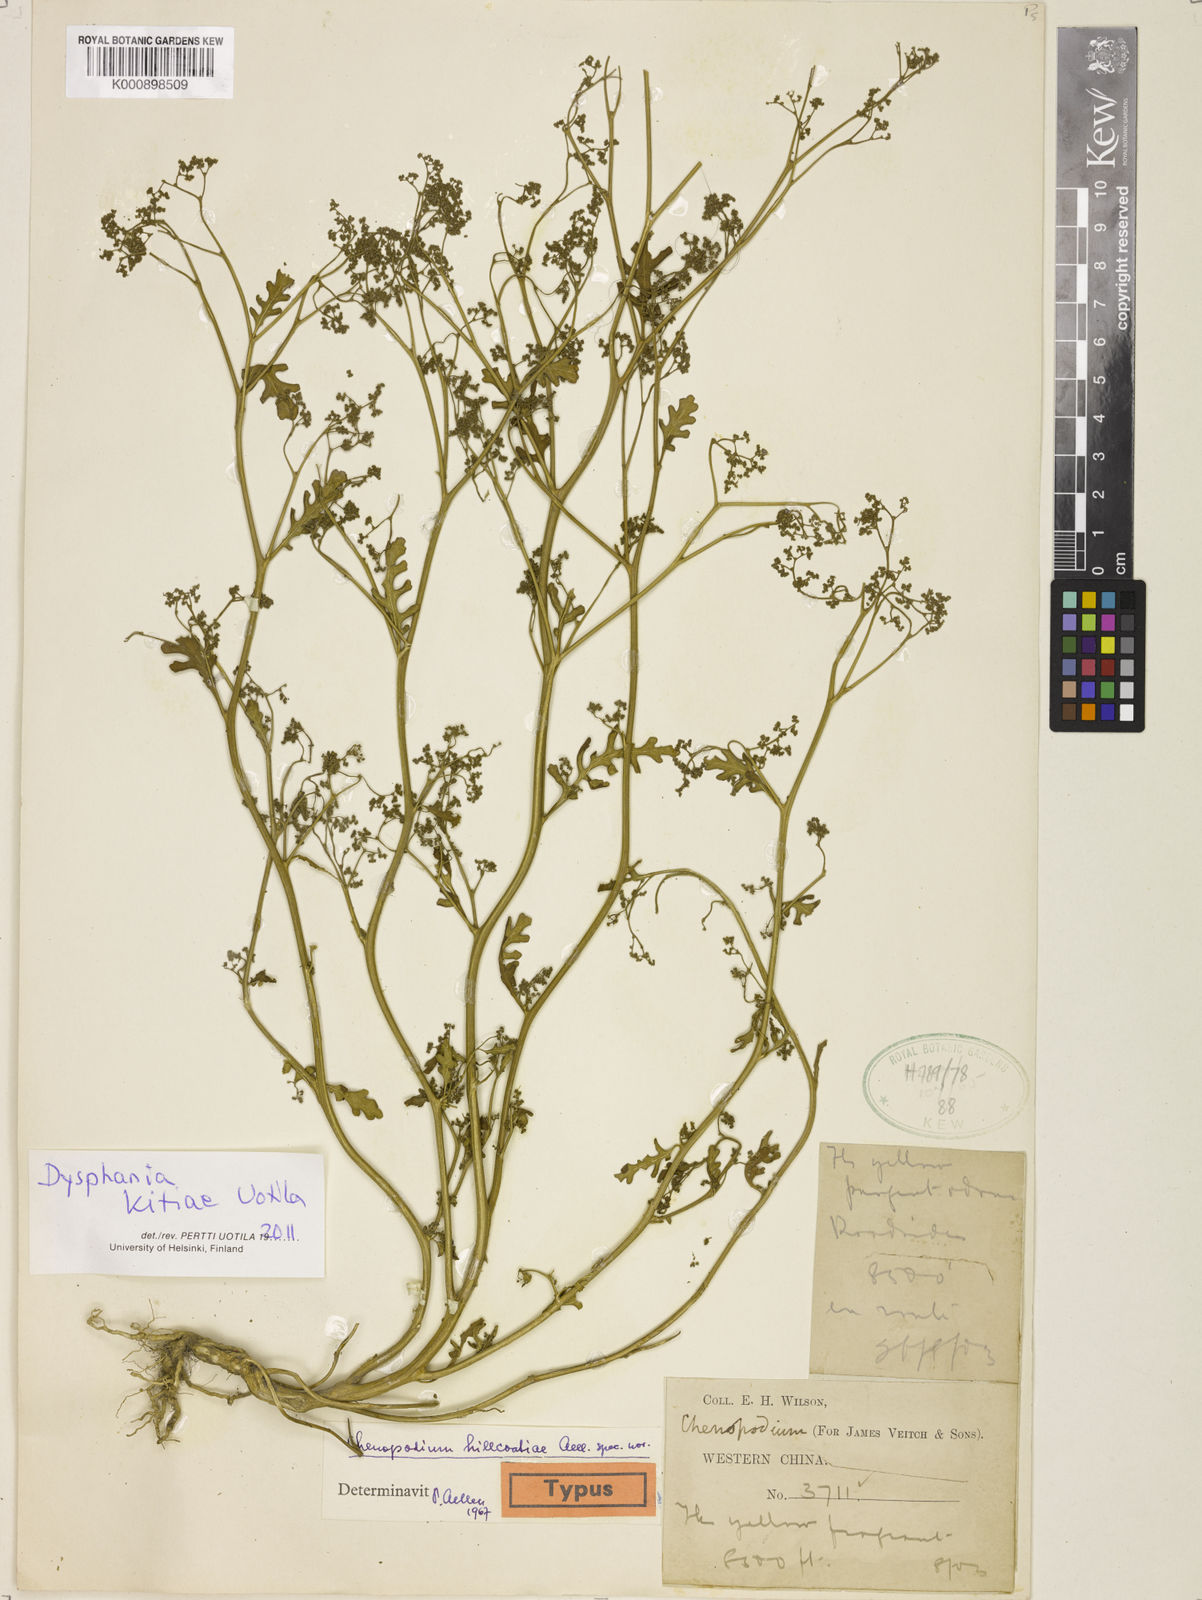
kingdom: Plantae
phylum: Tracheophyta
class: Magnoliopsida
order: Caryophyllales
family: Amaranthaceae
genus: Dysphania
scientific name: Dysphania kitiae
